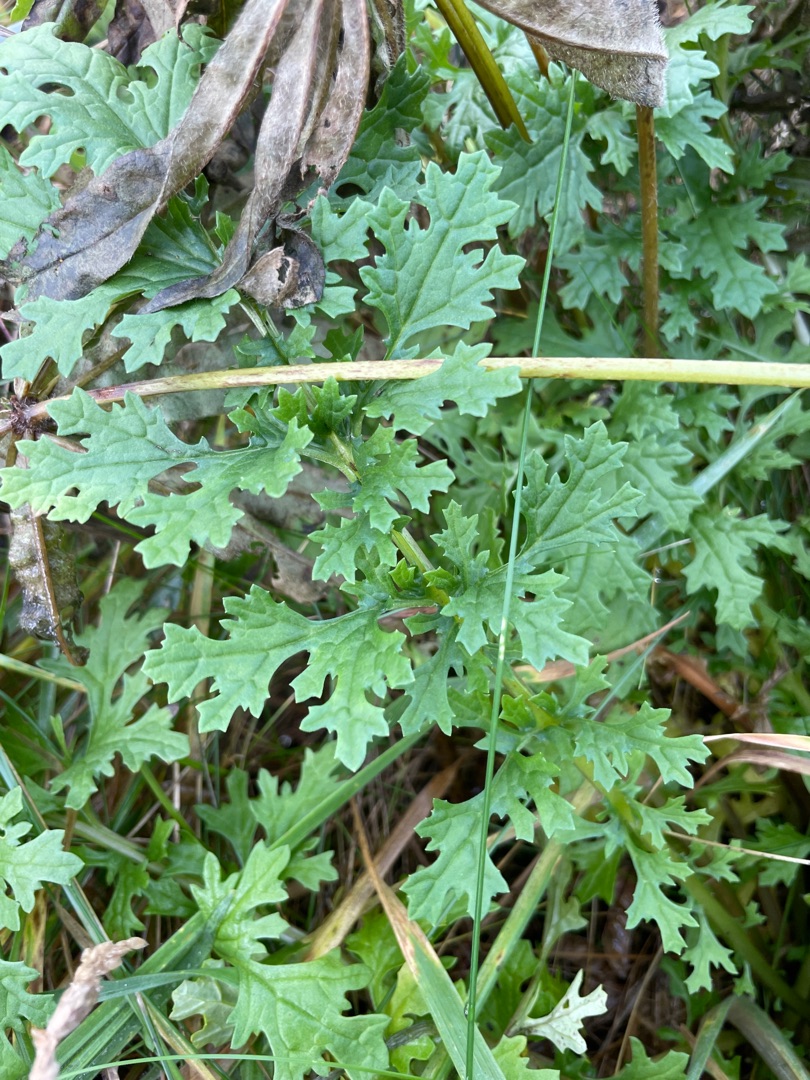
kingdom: Plantae
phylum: Tracheophyta
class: Magnoliopsida
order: Asterales
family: Asteraceae
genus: Jacobaea
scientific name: Jacobaea vulgaris
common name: Eng-brandbæger
